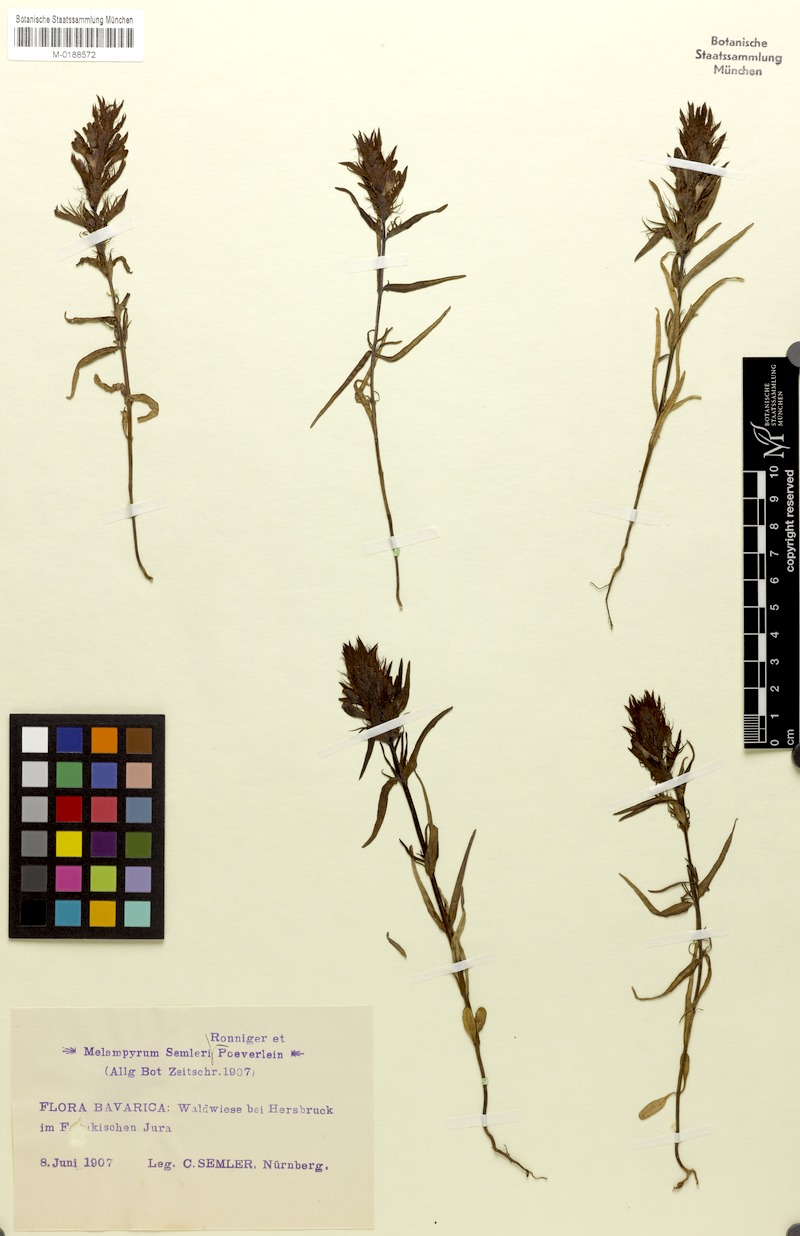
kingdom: Plantae
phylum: Tracheophyta
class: Magnoliopsida
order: Lamiales
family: Orobanchaceae
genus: Melampyrum
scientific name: Melampyrum arvense
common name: Field cow-wheat
